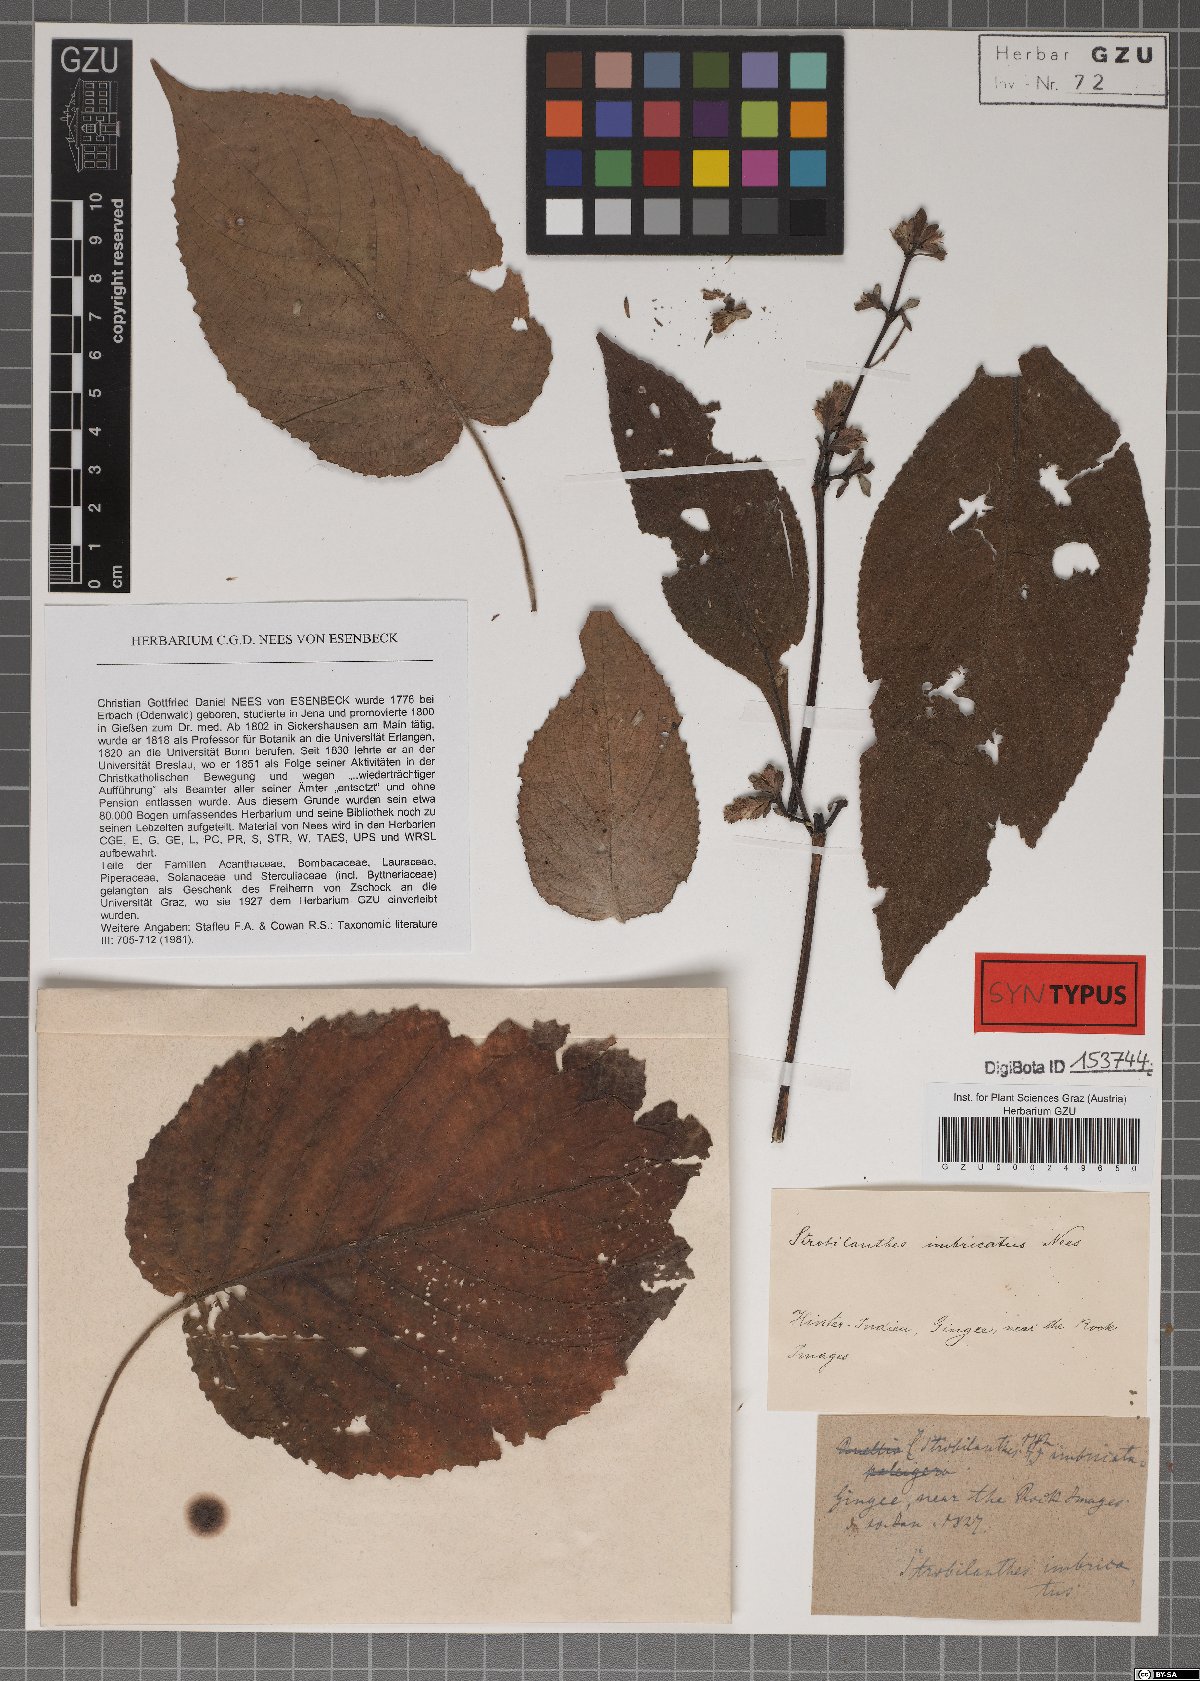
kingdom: Plantae
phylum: Tracheophyta
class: Magnoliopsida
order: Lamiales
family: Acanthaceae
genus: Strobilanthes
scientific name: Strobilanthes imbricata
